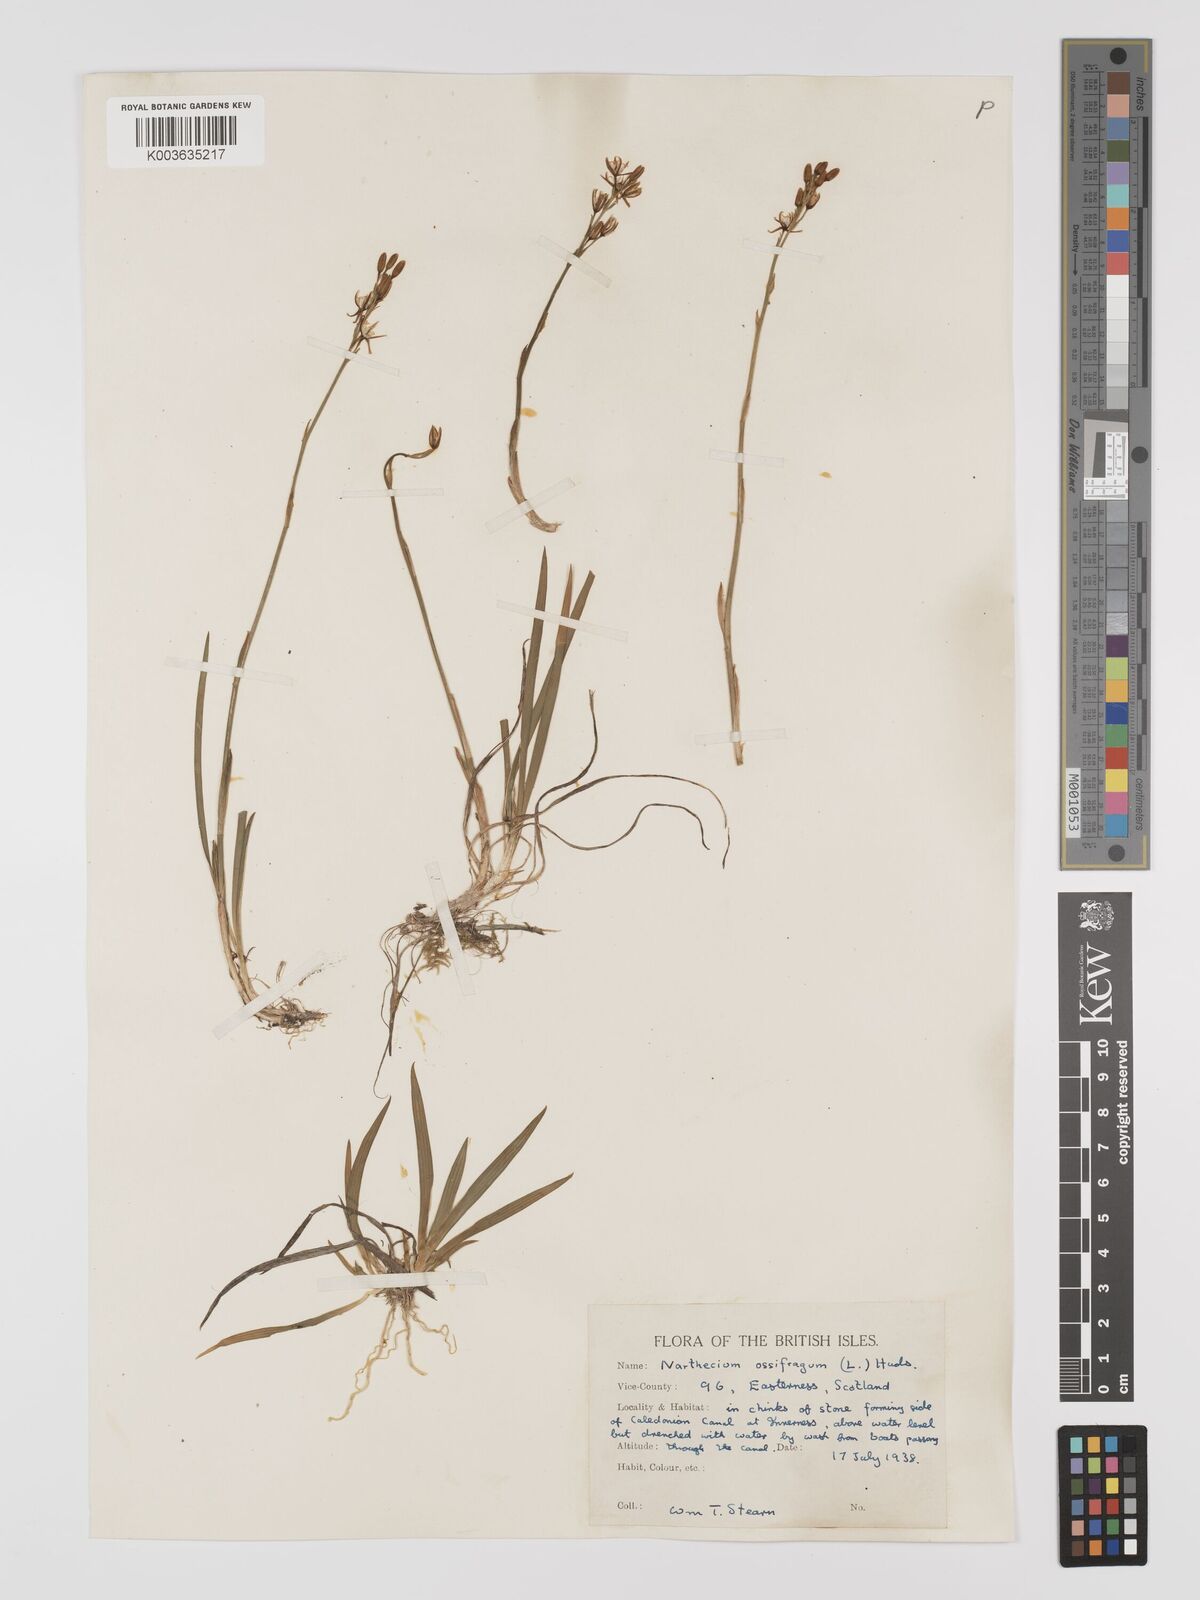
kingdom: Plantae
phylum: Tracheophyta
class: Liliopsida
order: Dioscoreales
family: Nartheciaceae
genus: Narthecium
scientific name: Narthecium
